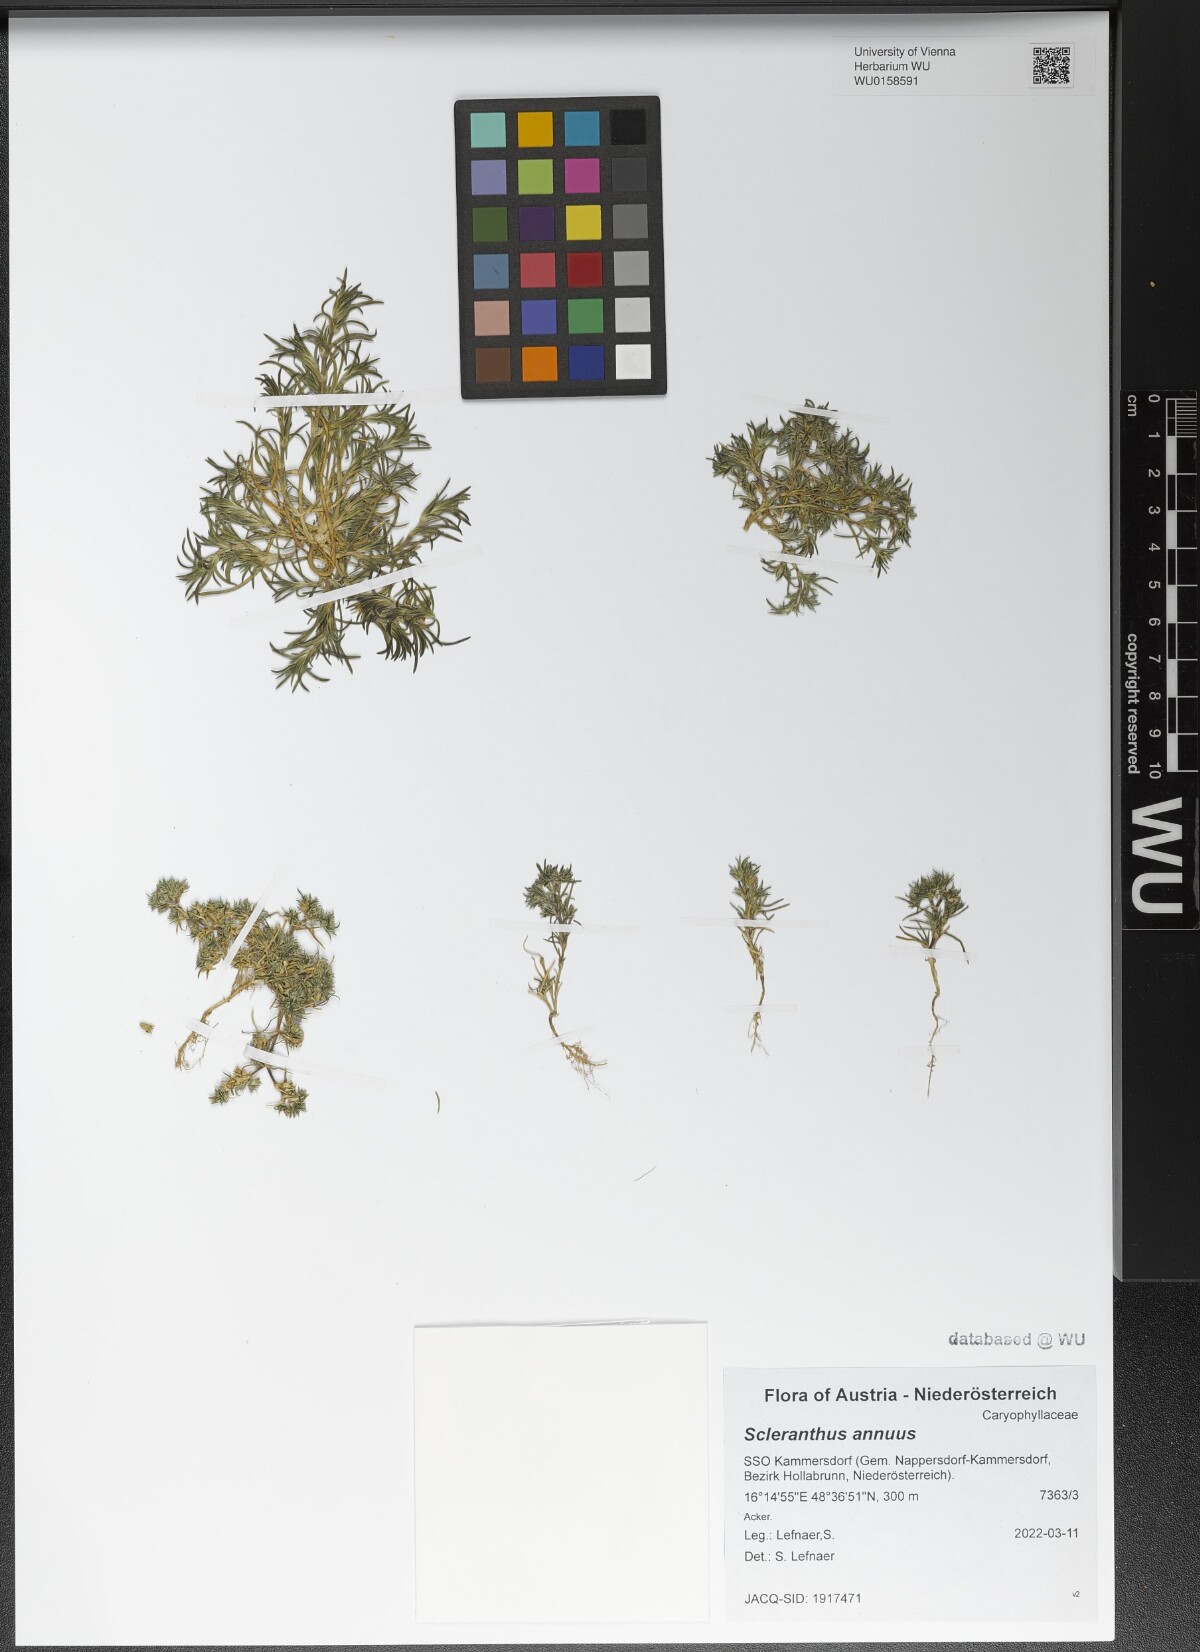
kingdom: Plantae
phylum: Tracheophyta
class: Magnoliopsida
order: Caryophyllales
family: Caryophyllaceae
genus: Scleranthus
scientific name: Scleranthus annuus
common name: Annual knawel
